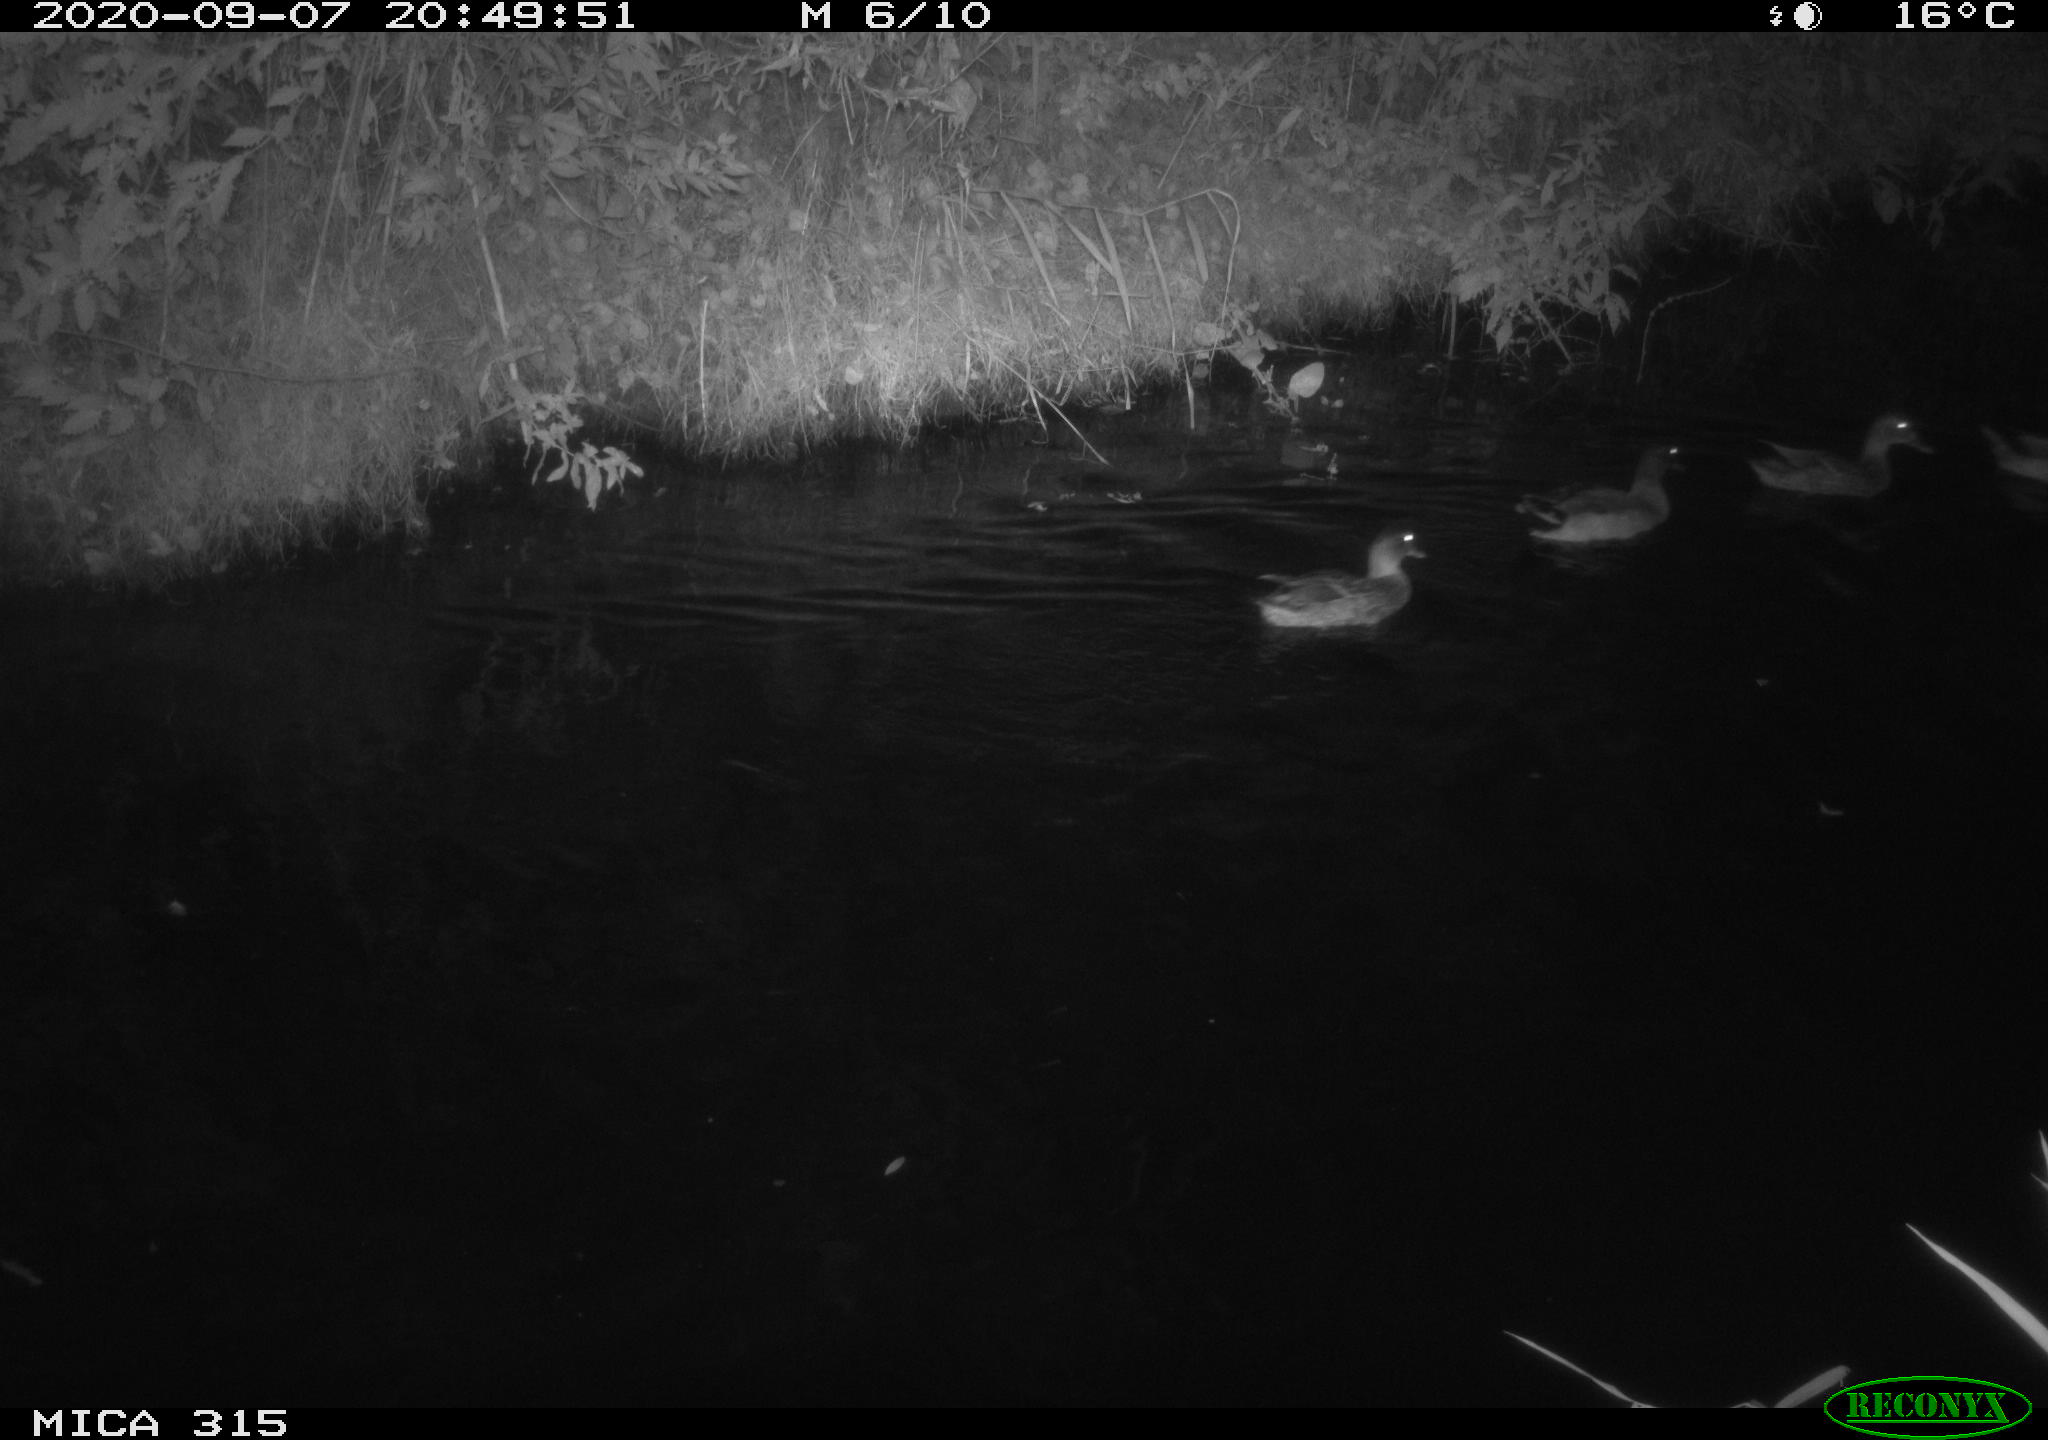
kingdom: Animalia
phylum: Chordata
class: Aves
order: Anseriformes
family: Anatidae
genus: Anas
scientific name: Anas platyrhynchos
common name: Mallard
